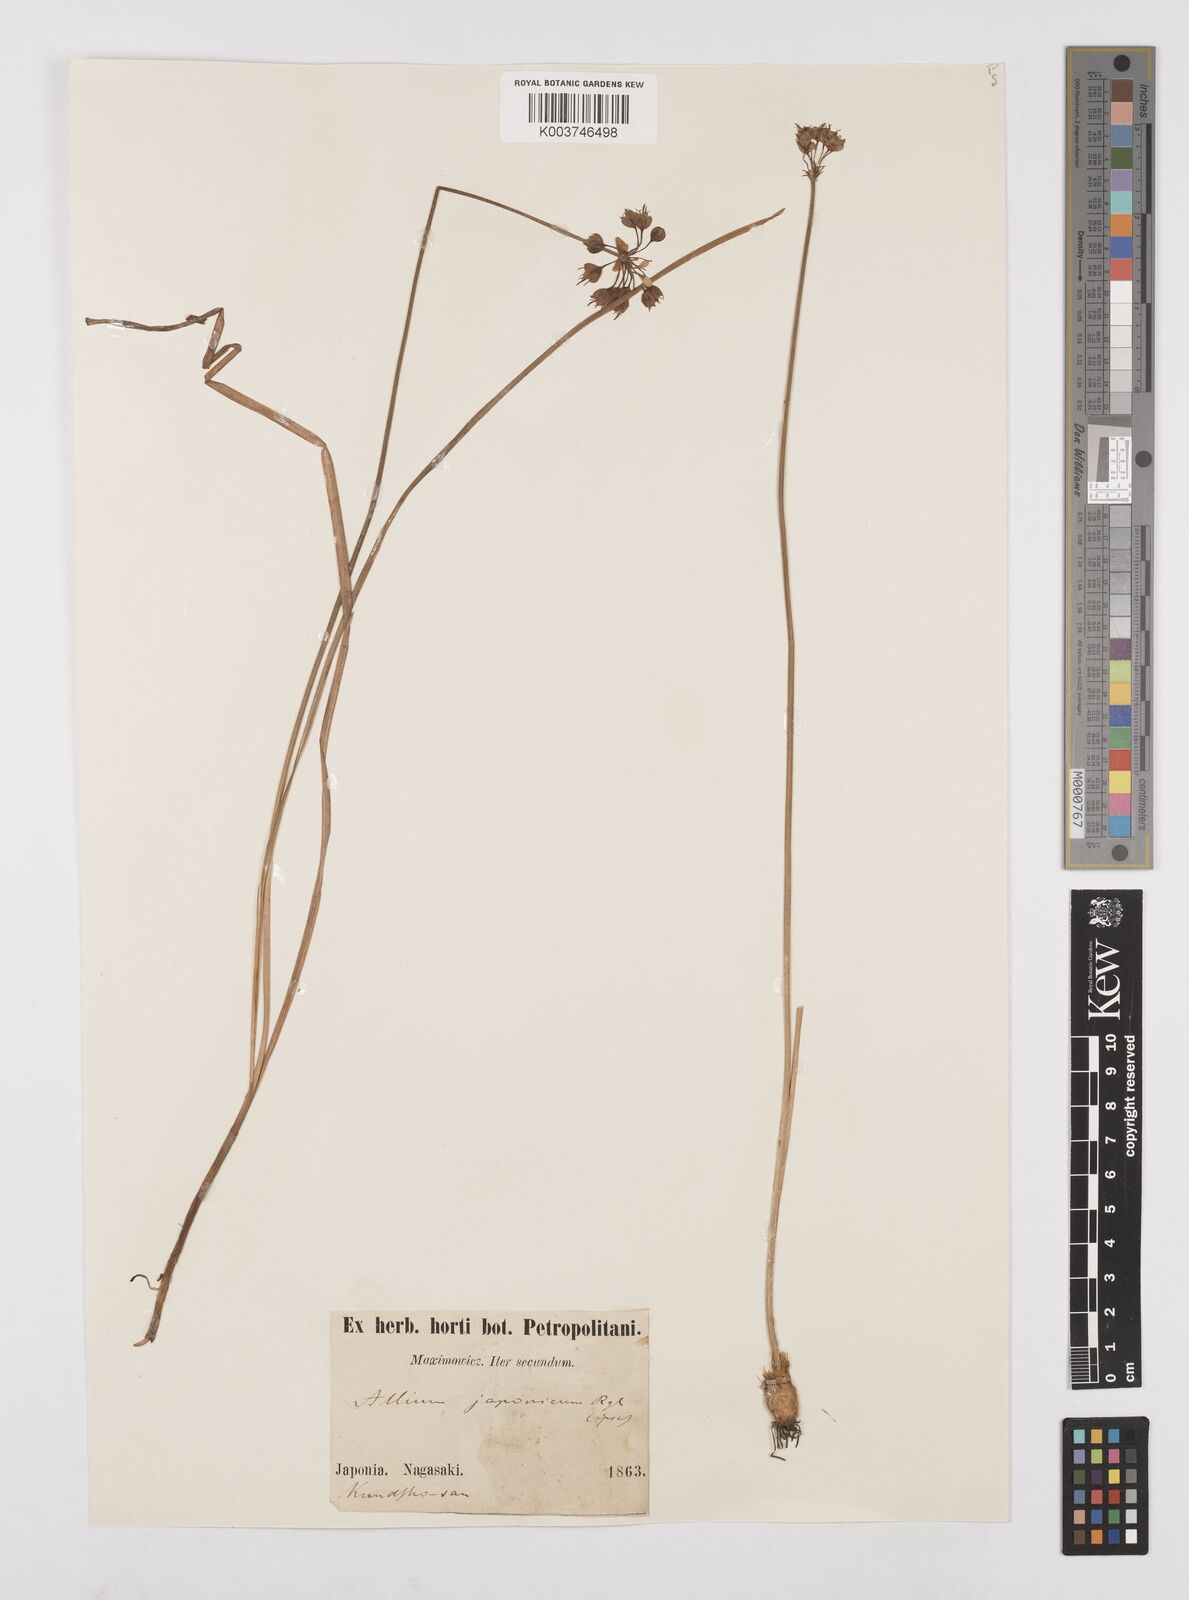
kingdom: Plantae
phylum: Tracheophyta
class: Liliopsida
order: Asparagales
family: Amaryllidaceae
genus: Allium
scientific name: Allium sacculiferum
